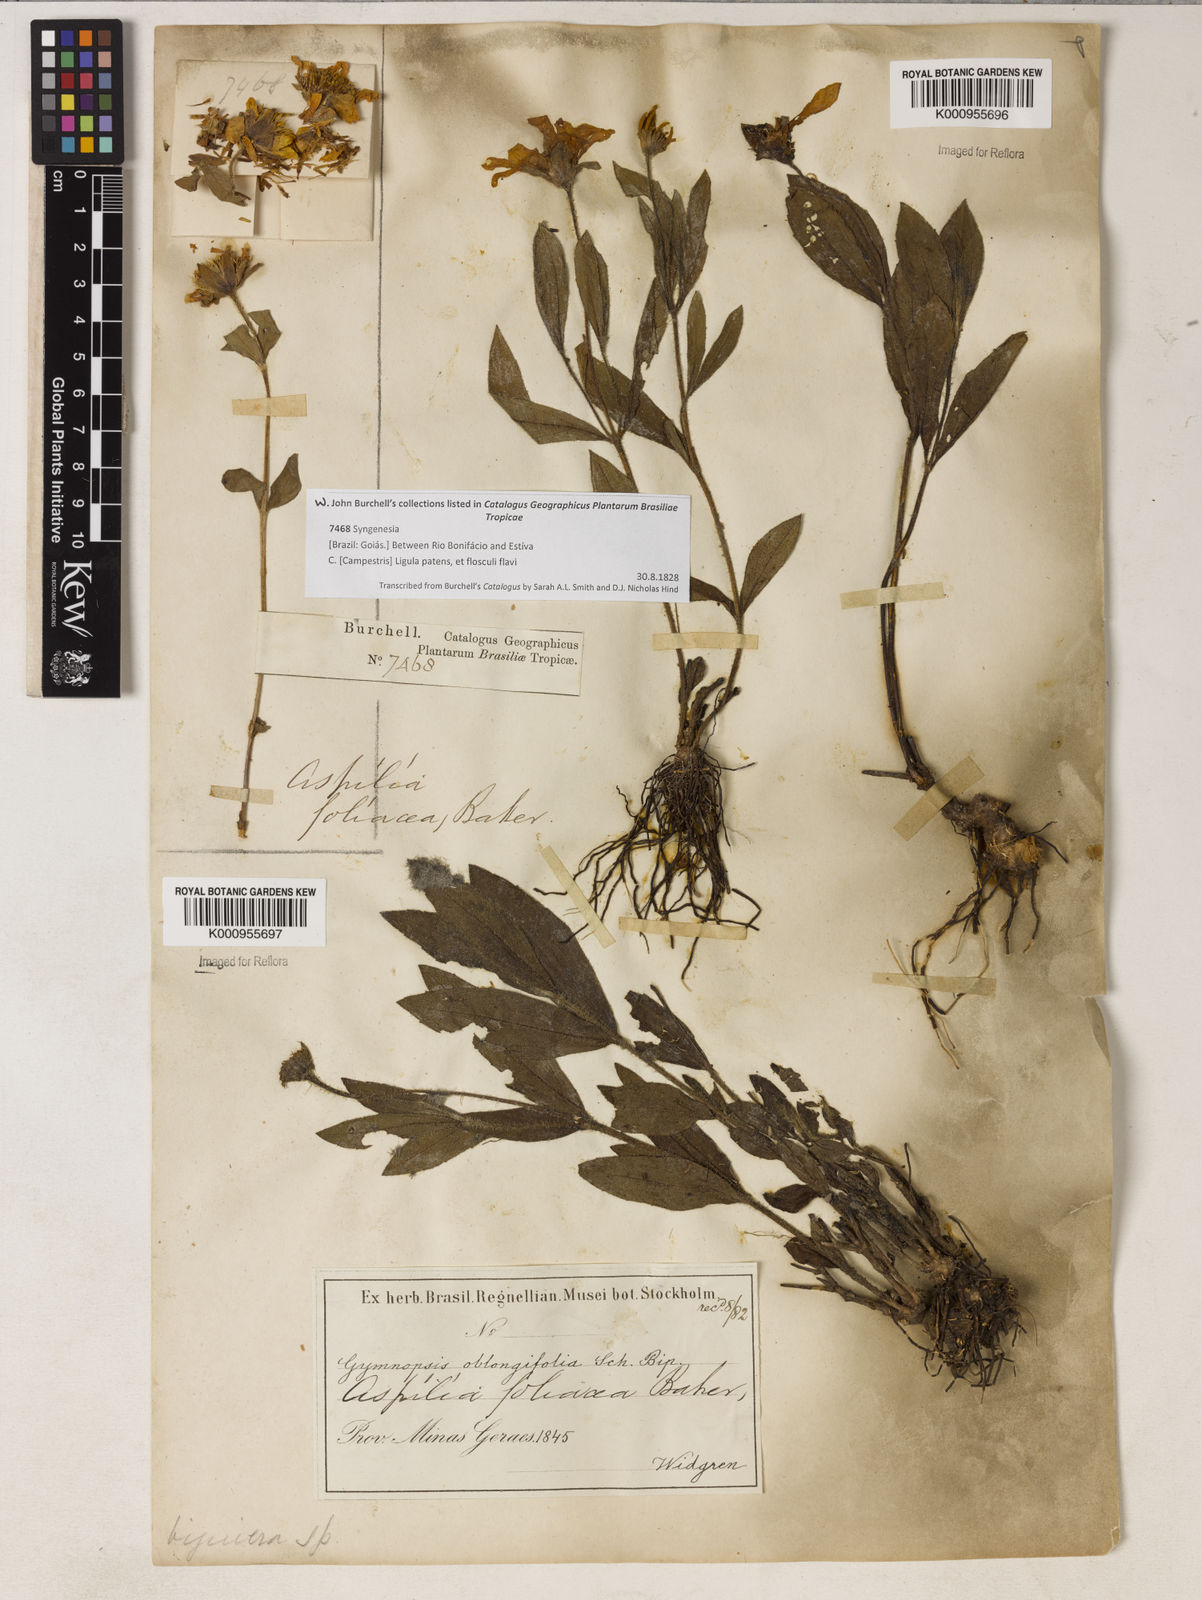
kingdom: Plantae
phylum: Tracheophyta
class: Magnoliopsida
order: Asterales
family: Asteraceae
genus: Wedelia
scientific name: Wedelia foliacea
